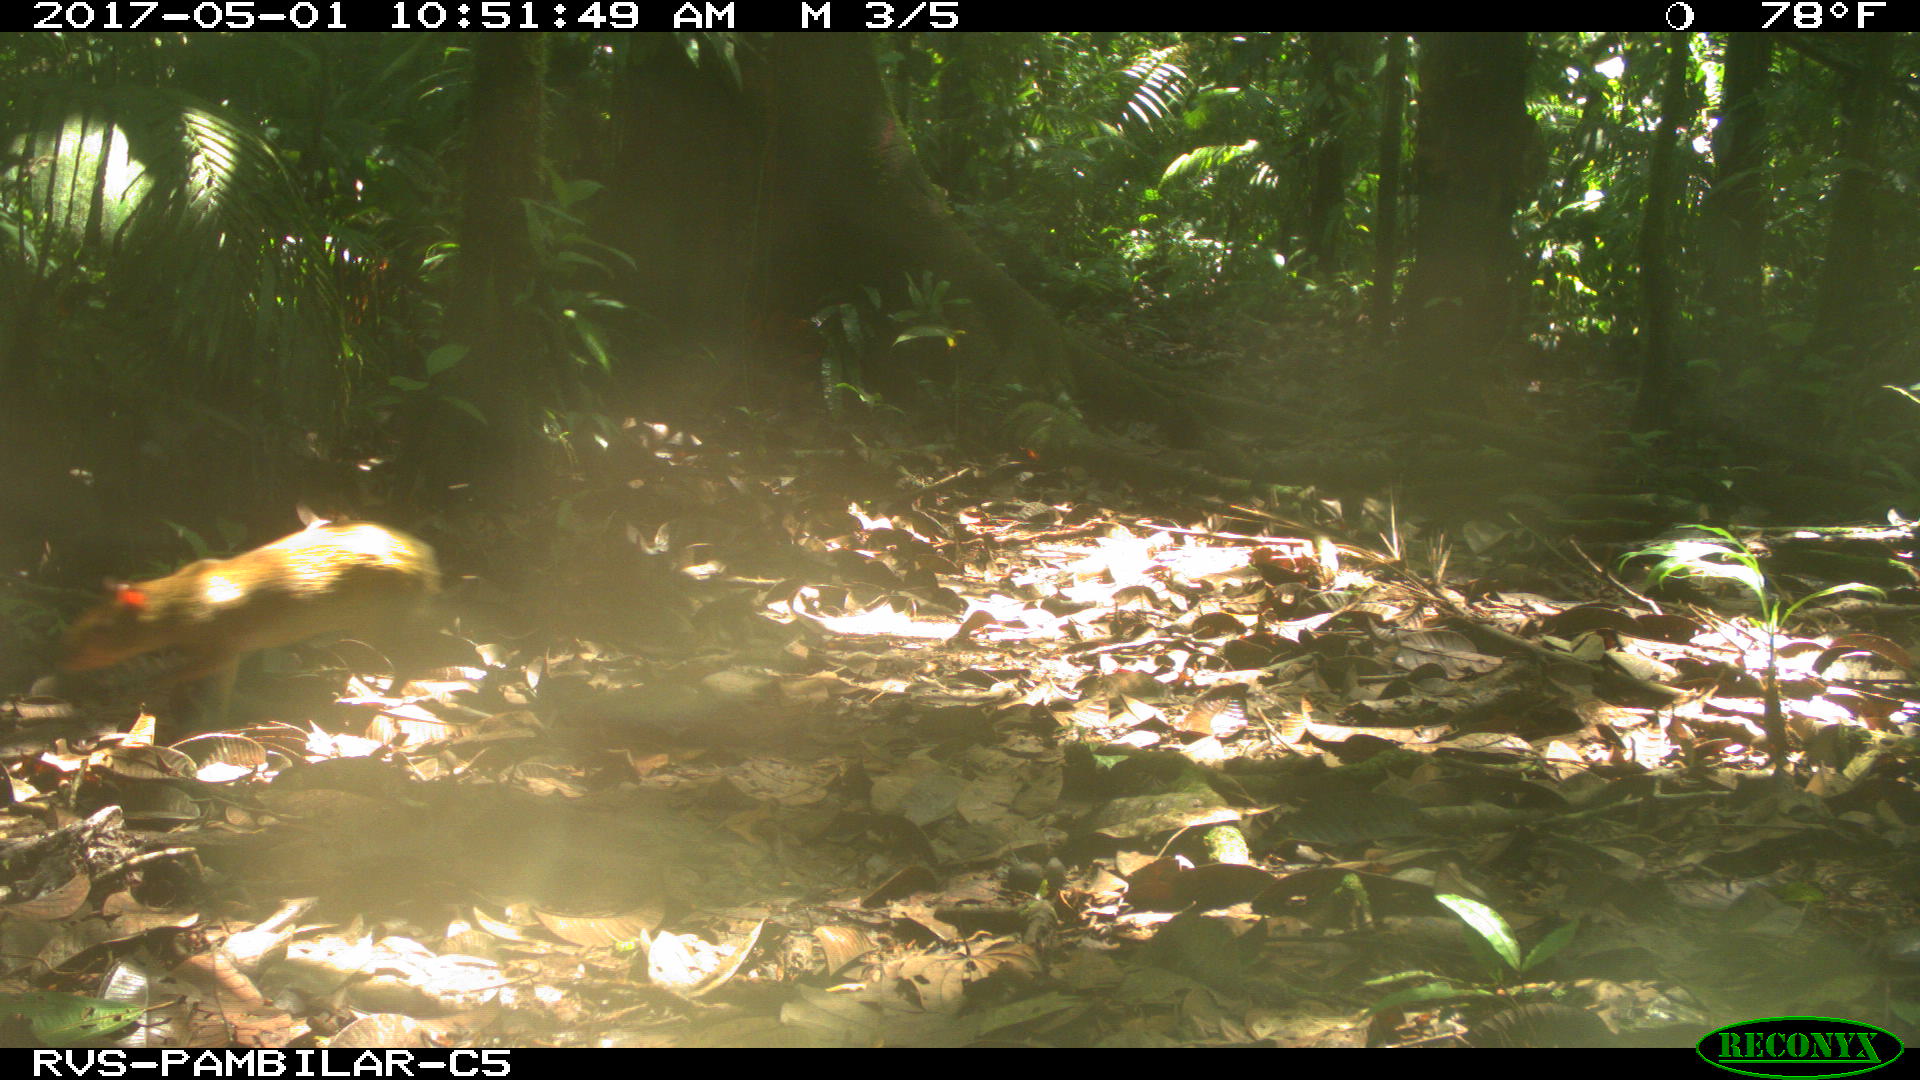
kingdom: Animalia
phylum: Chordata
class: Mammalia
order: Rodentia
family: Dasyproctidae
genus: Dasyprocta
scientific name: Dasyprocta punctata
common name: Central american agouti
